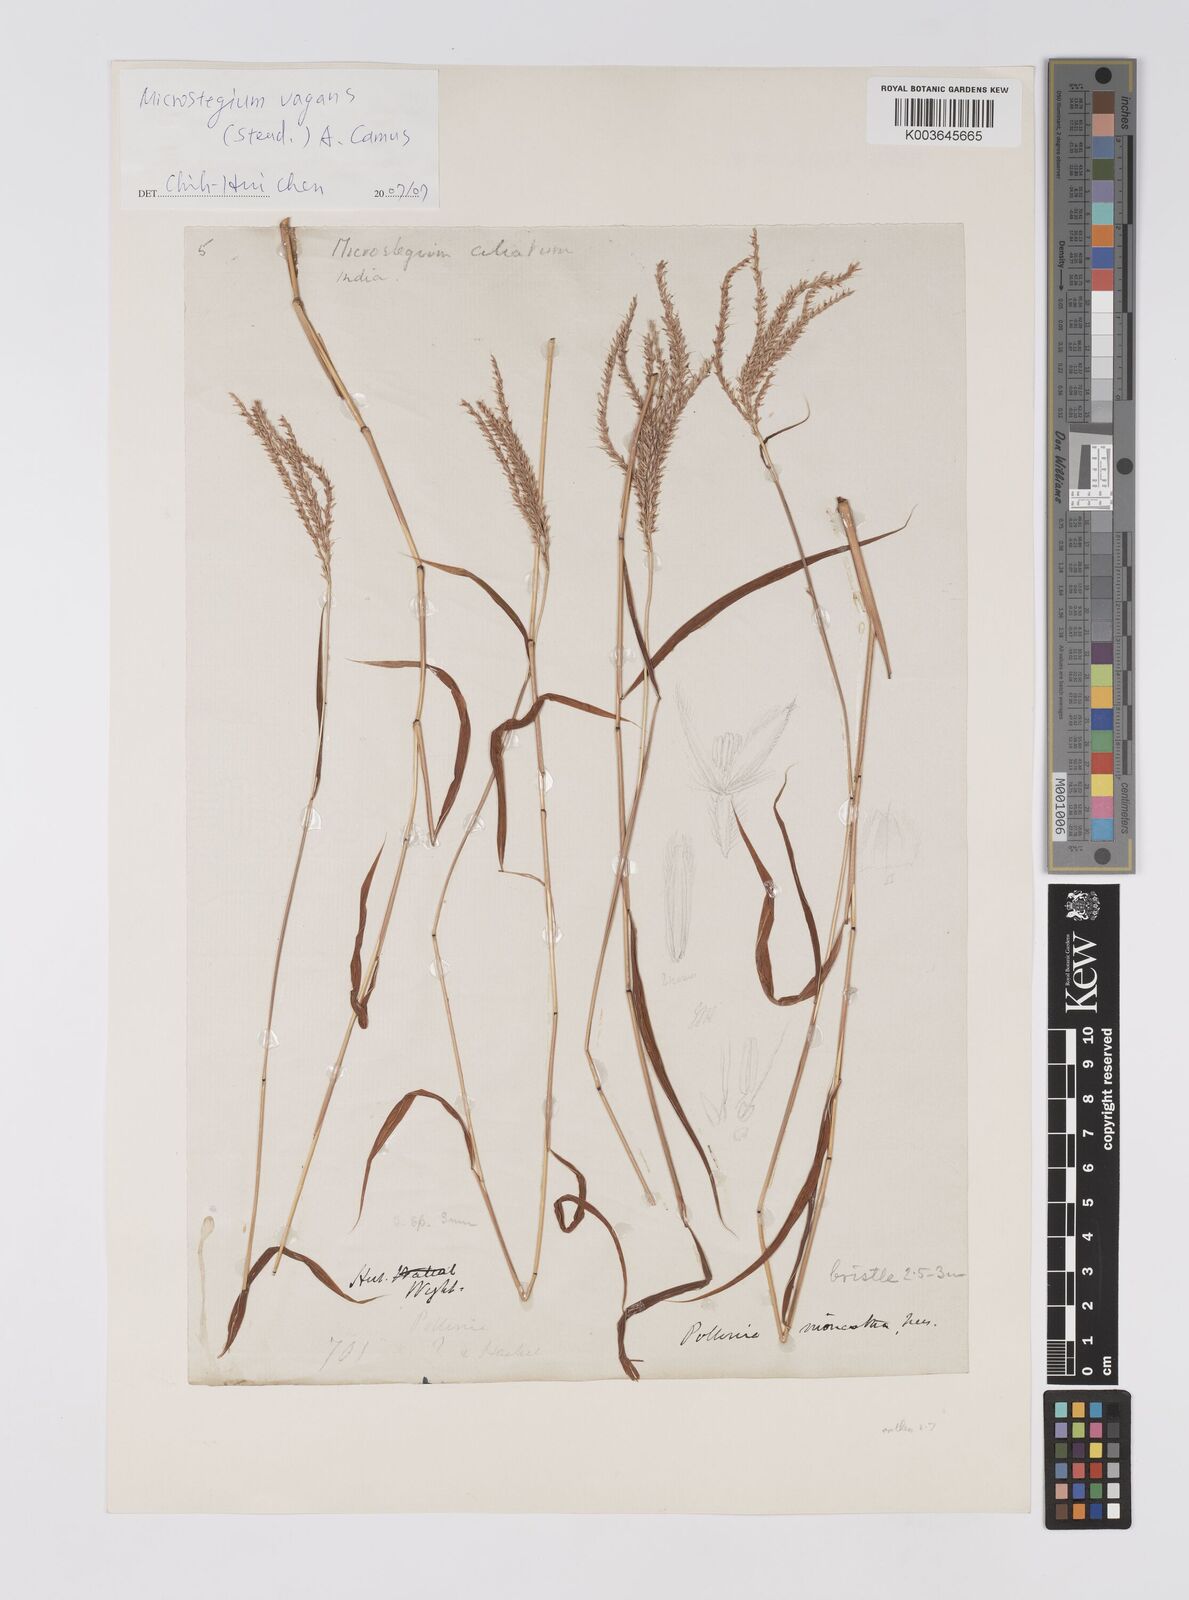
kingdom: Plantae
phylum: Tracheophyta
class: Liliopsida
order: Poales
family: Poaceae
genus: Microstegium
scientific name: Microstegium fasciculatum
